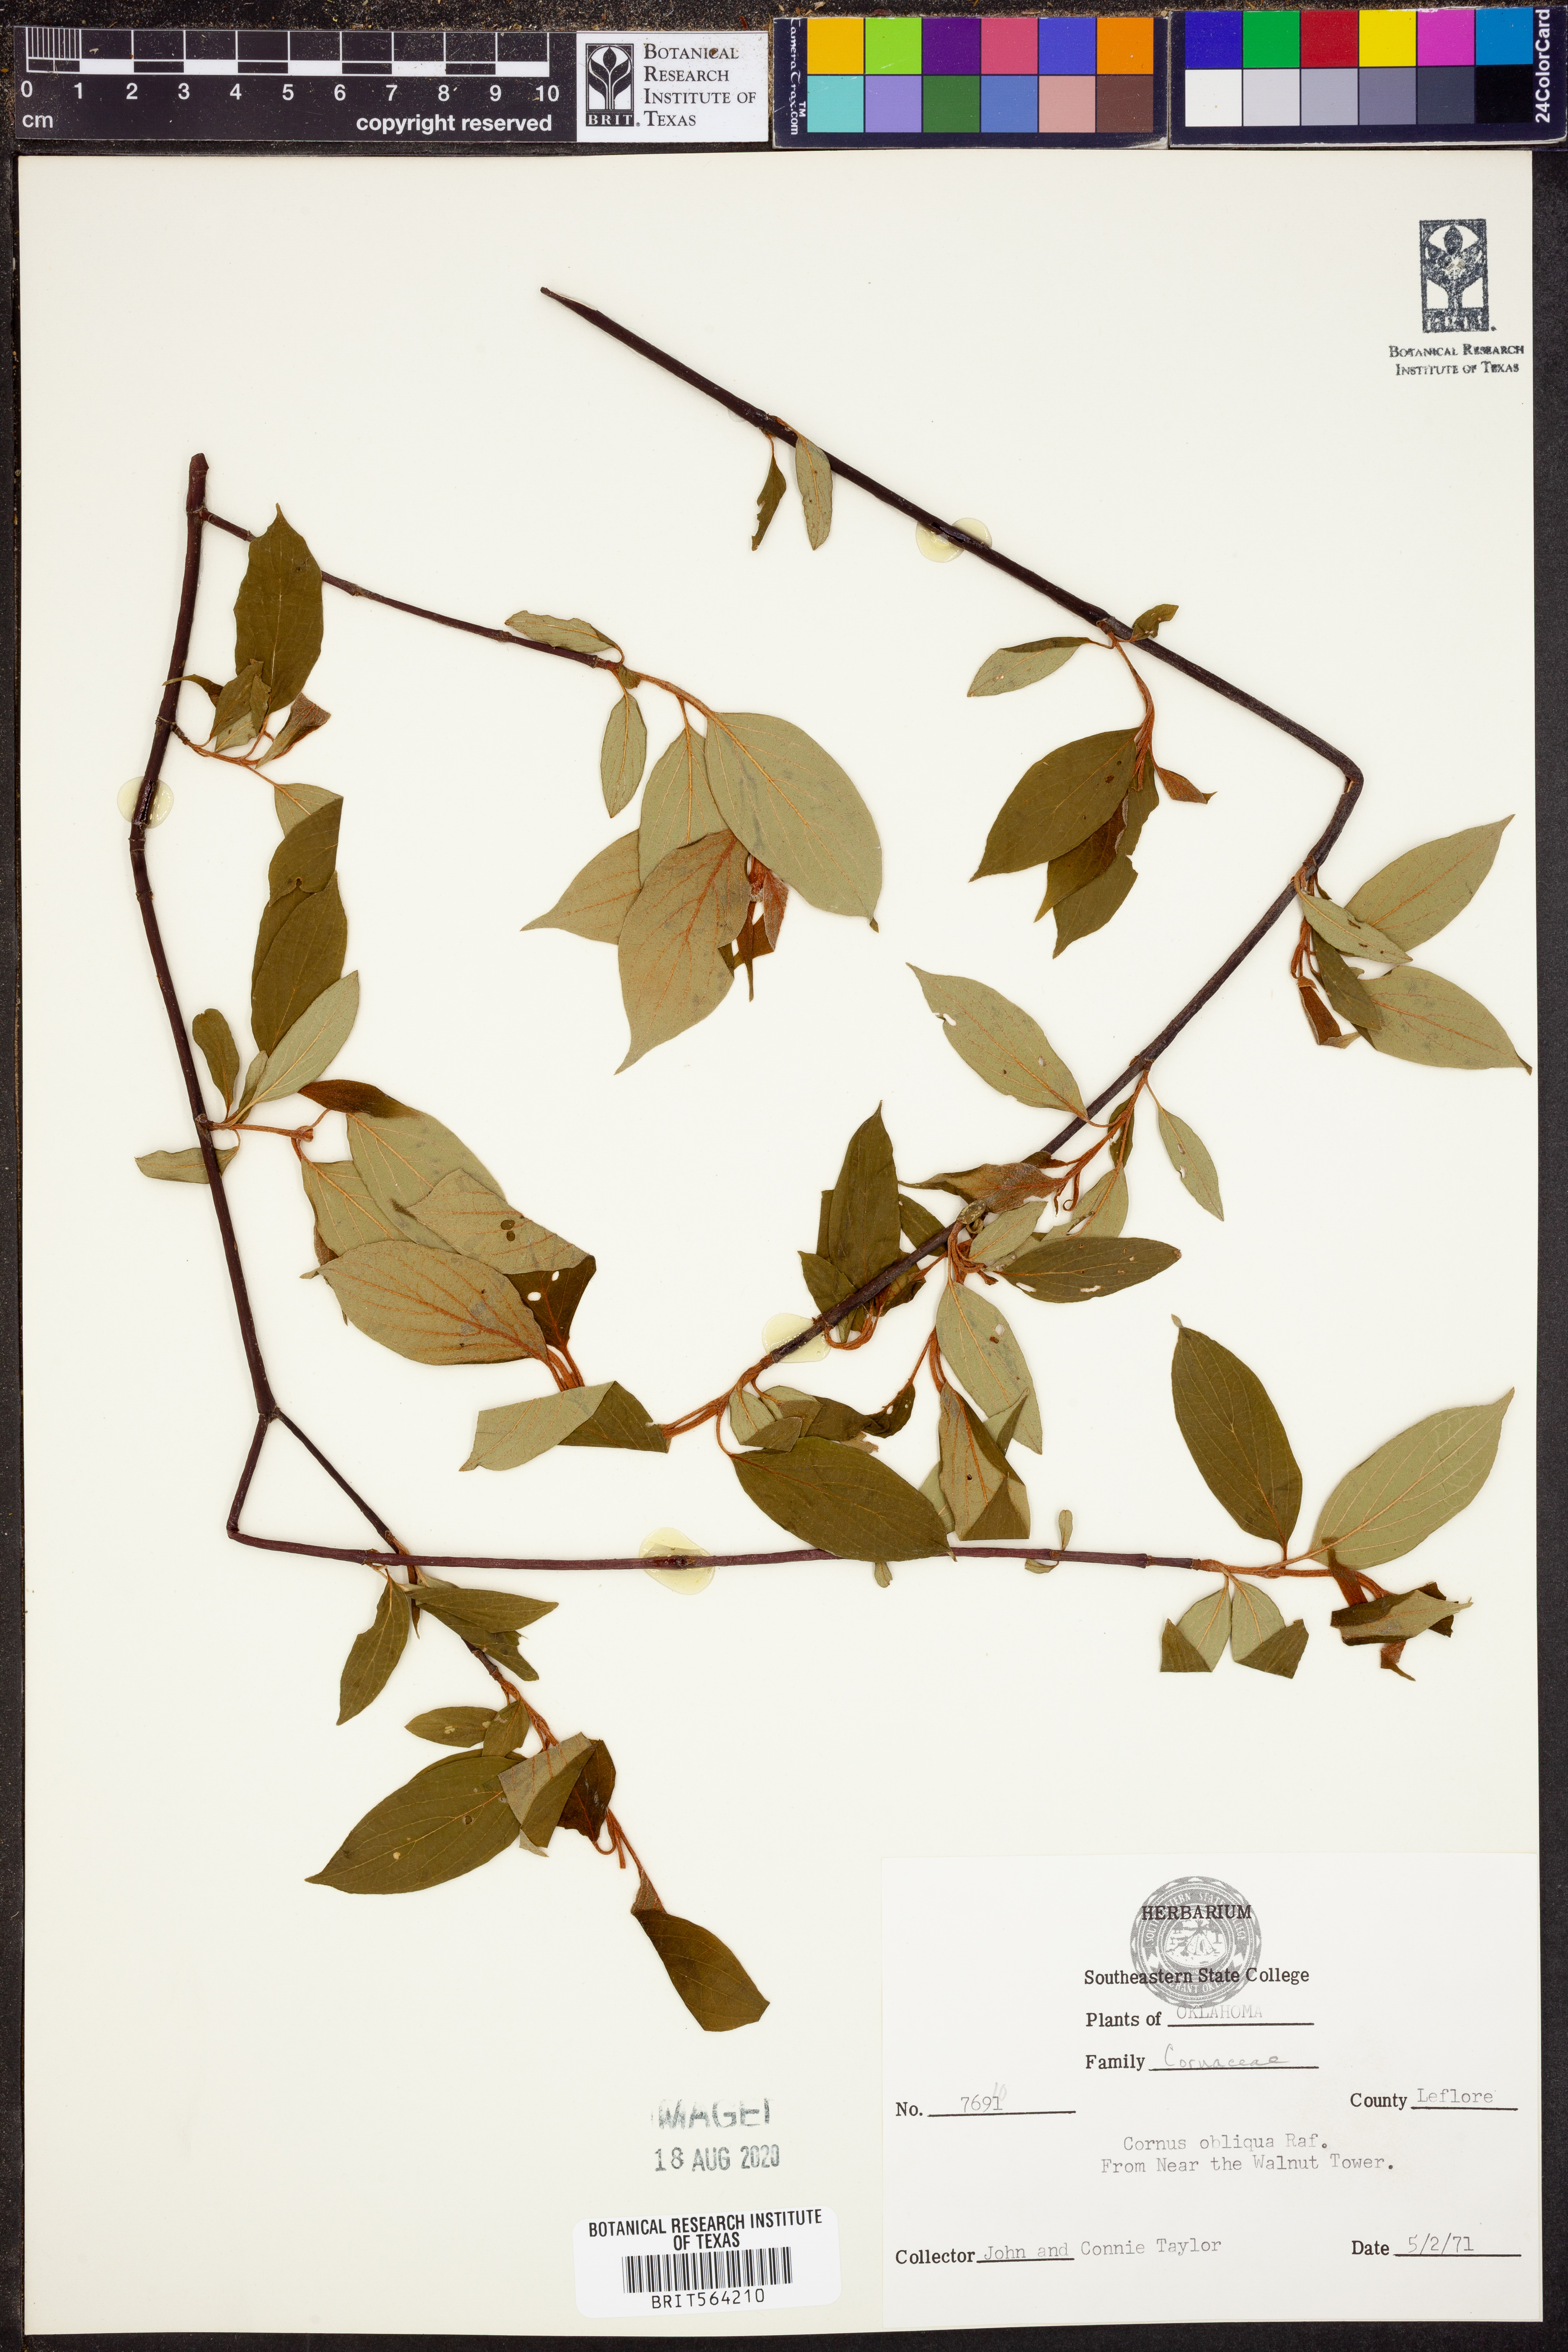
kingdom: Plantae
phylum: Tracheophyta
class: Magnoliopsida
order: Cornales
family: Cornaceae
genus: Cornus
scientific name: Cornus obliqua
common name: Pale dogwood
